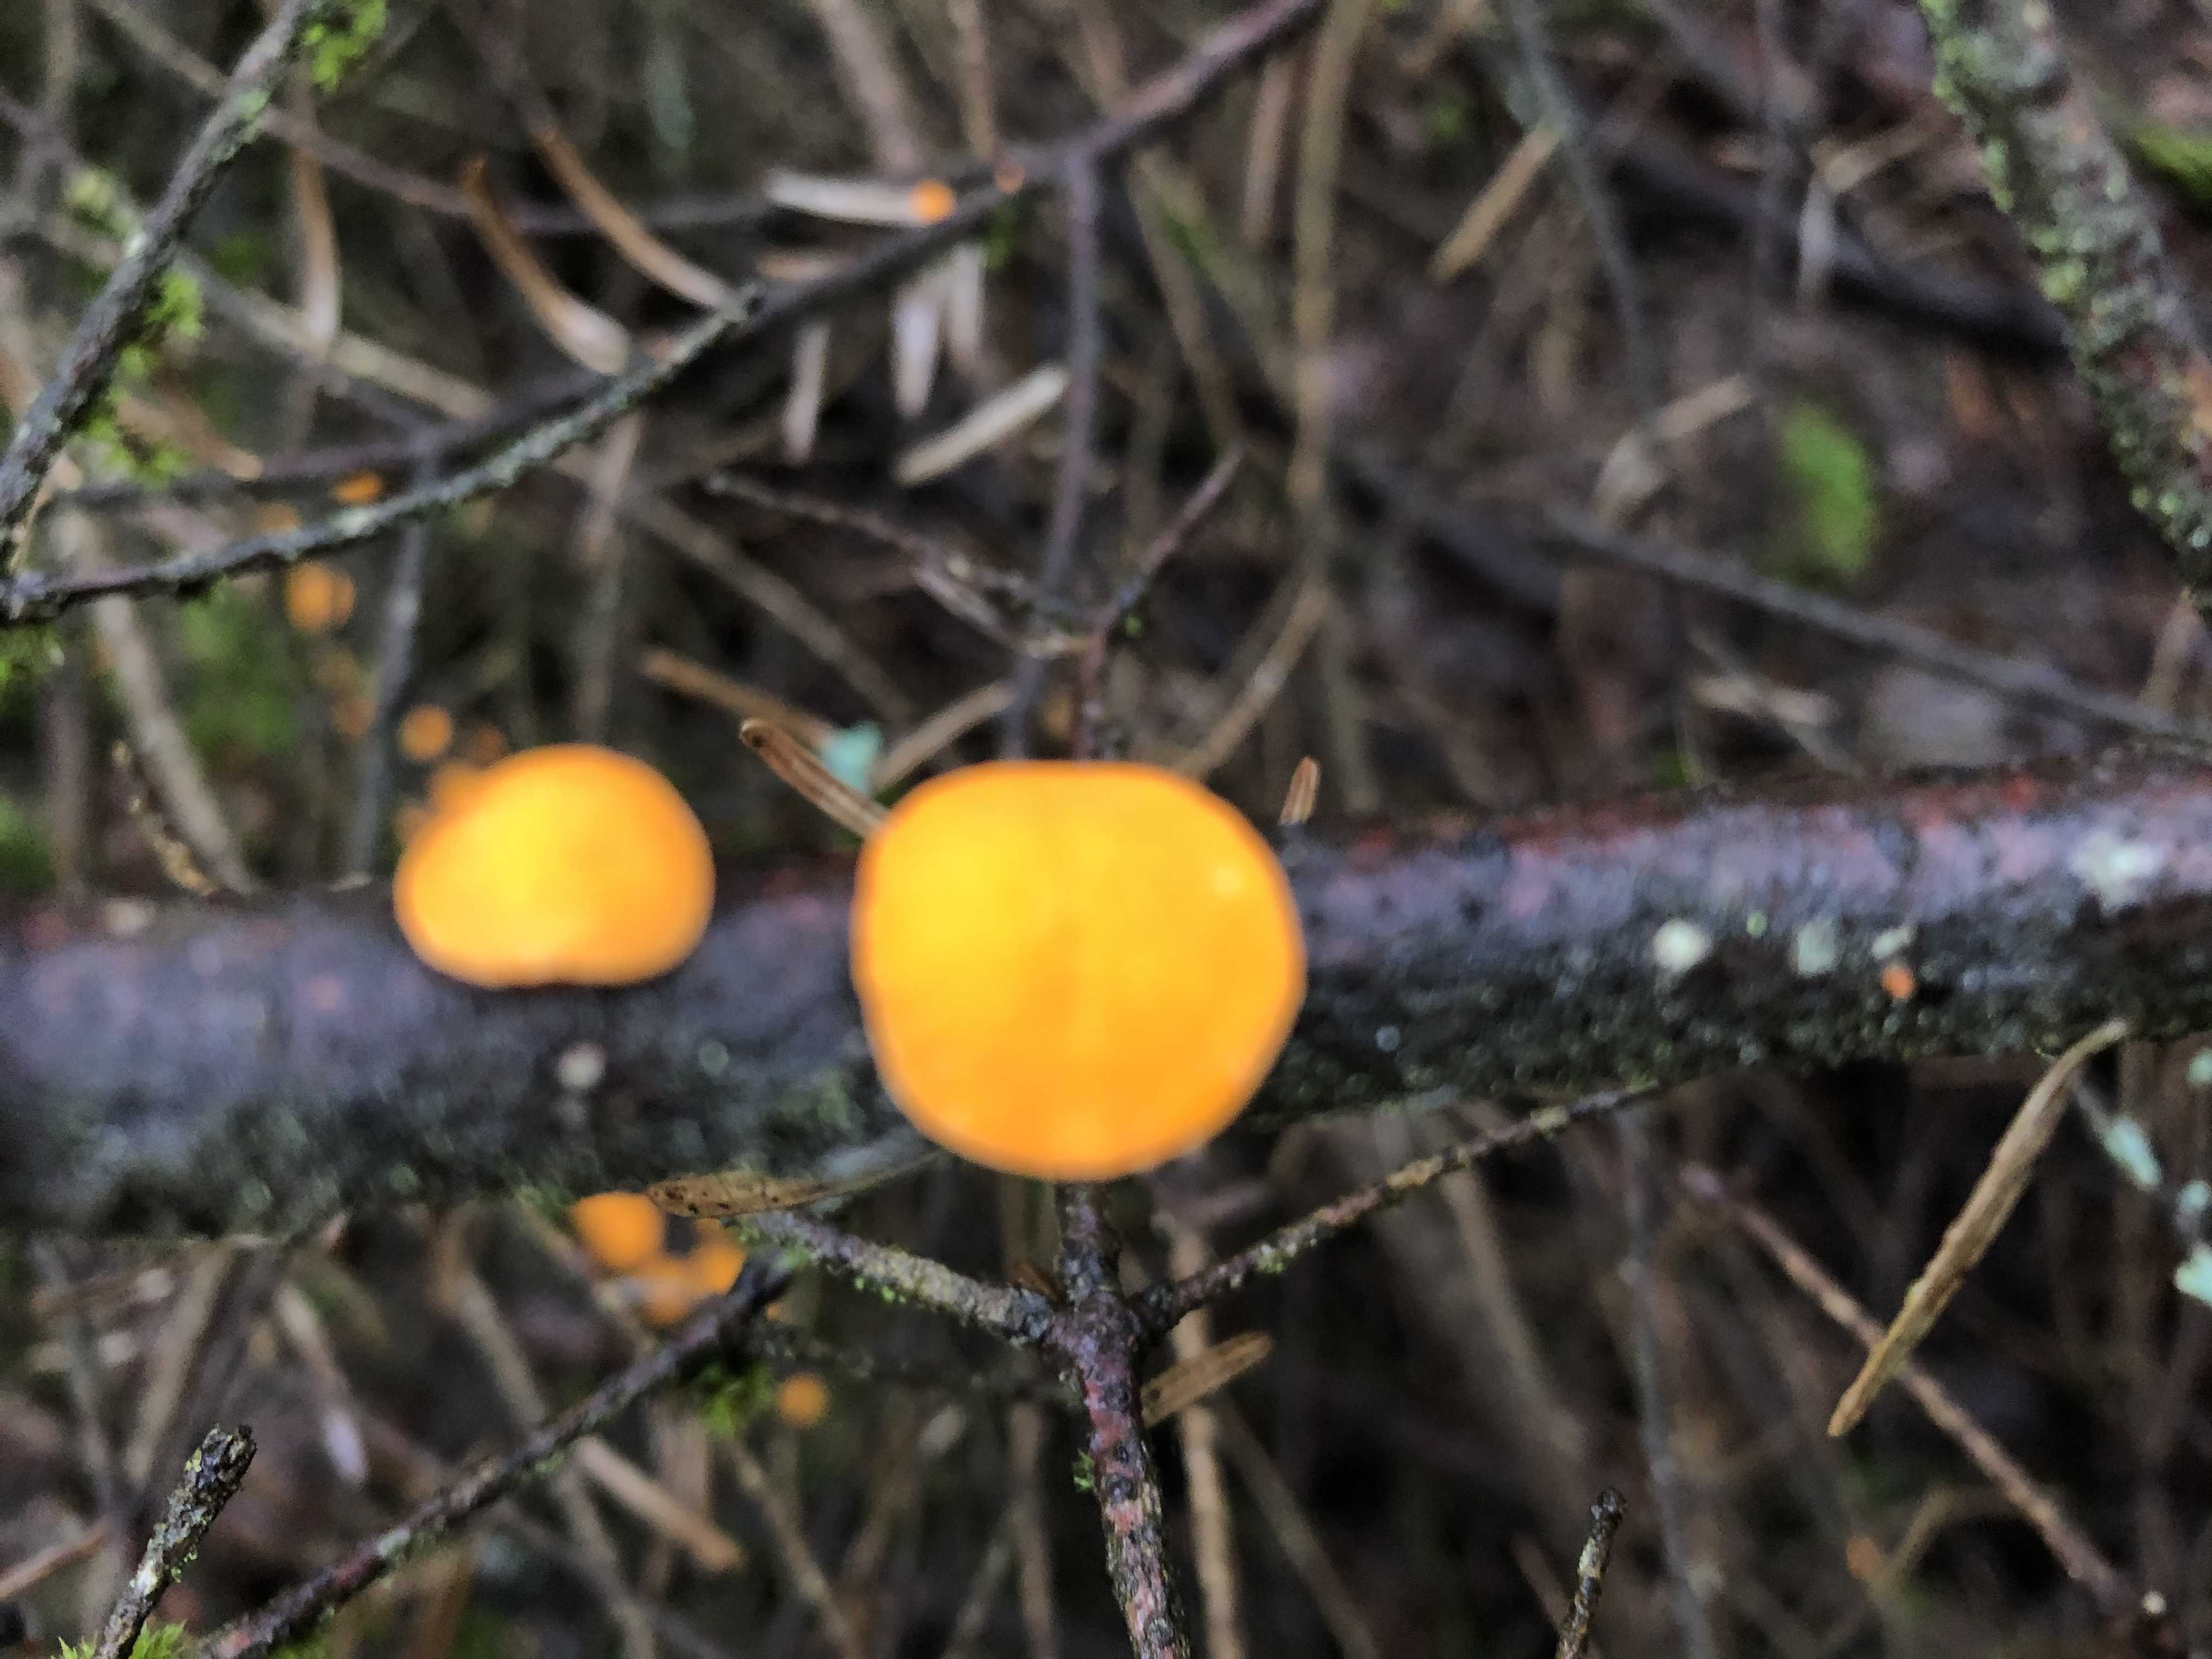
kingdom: Fungi
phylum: Ascomycota
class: Pezizomycetes
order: Pezizales
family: Sarcoscyphaceae
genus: Pithya
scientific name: Pithya vulgaris
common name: stor dukatbæger
